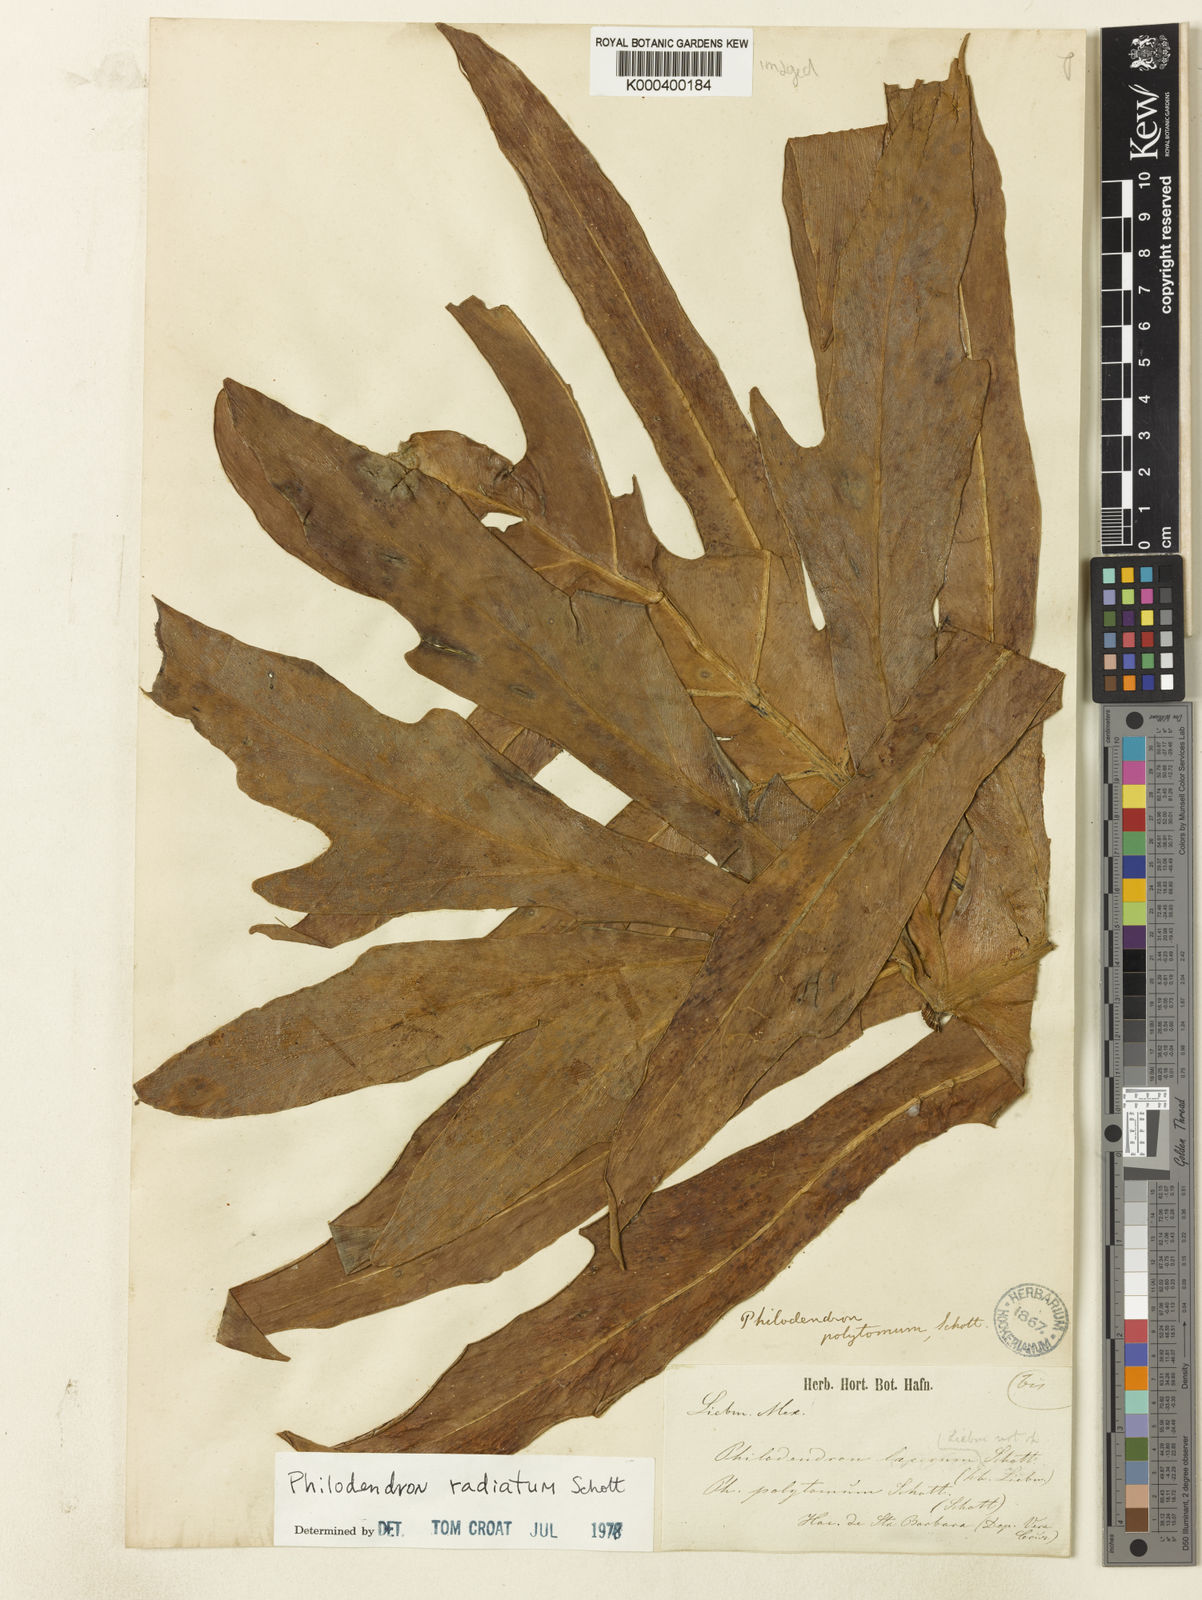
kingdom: Plantae
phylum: Tracheophyta
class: Liliopsida
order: Alismatales
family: Araceae
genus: Philodendron
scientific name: Philodendron radiatum
